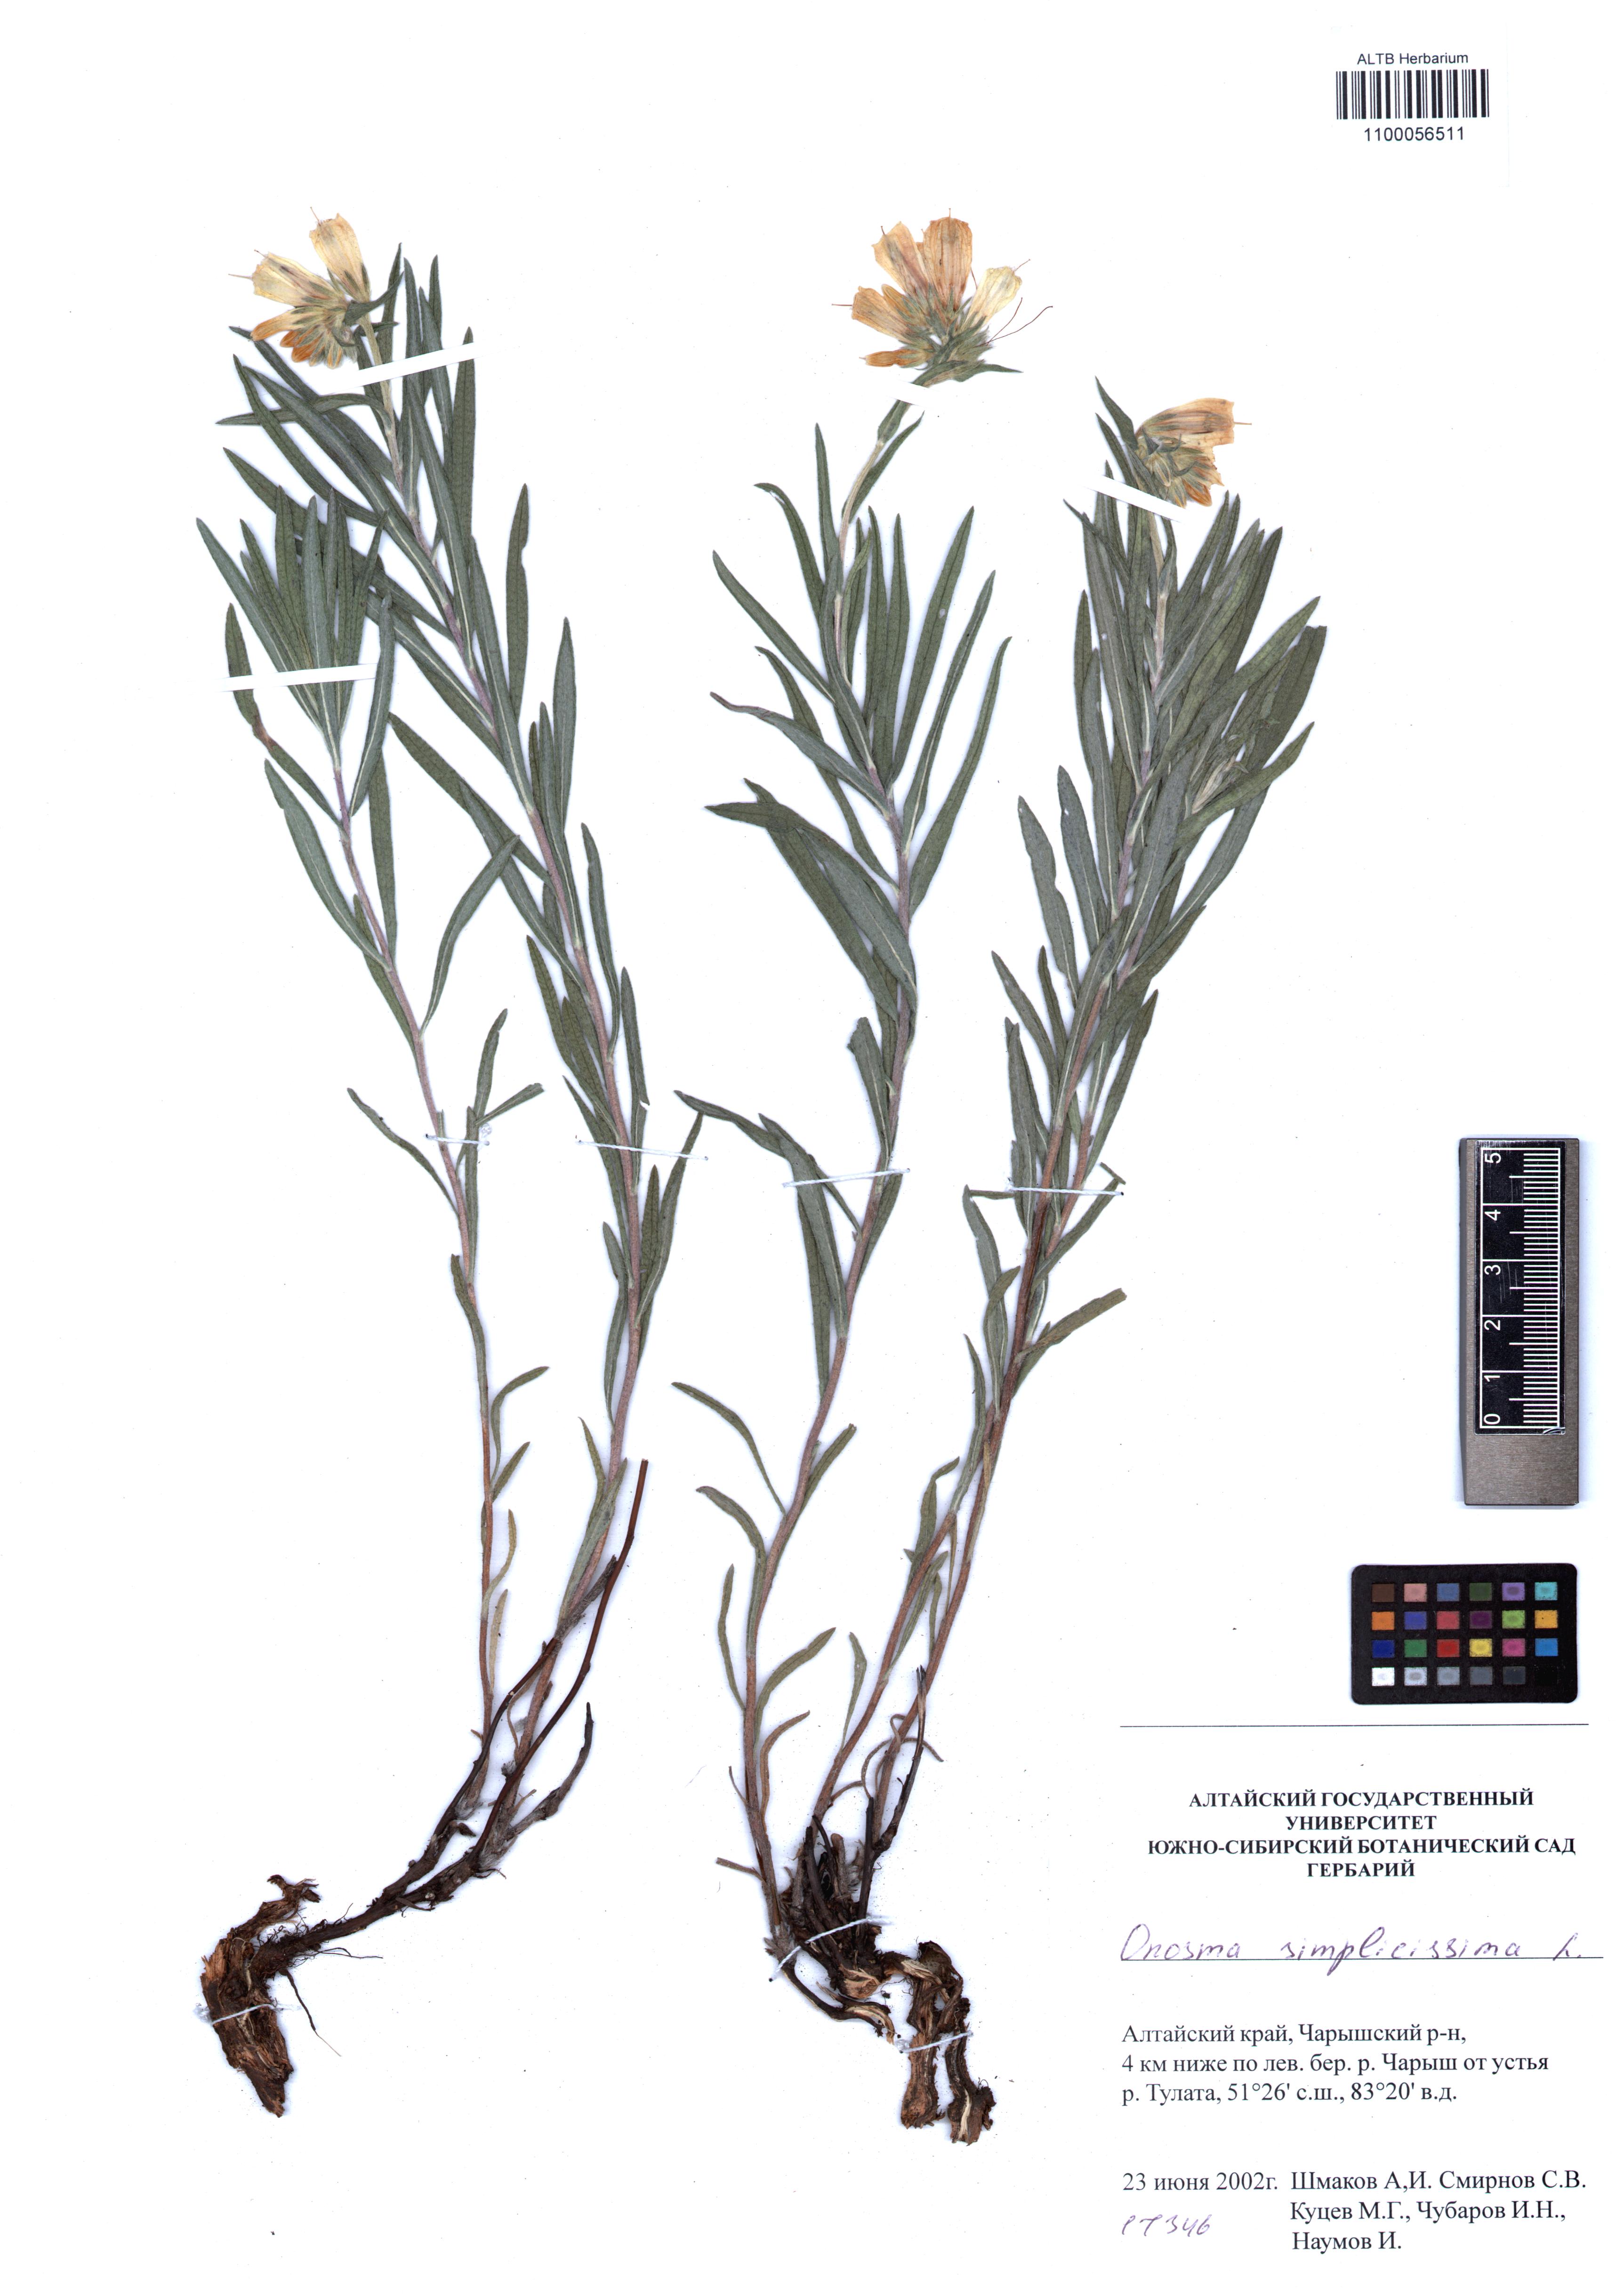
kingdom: Plantae
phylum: Tracheophyta
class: Magnoliopsida
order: Boraginales
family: Boraginaceae
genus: Onosma
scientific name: Onosma simplicissima
